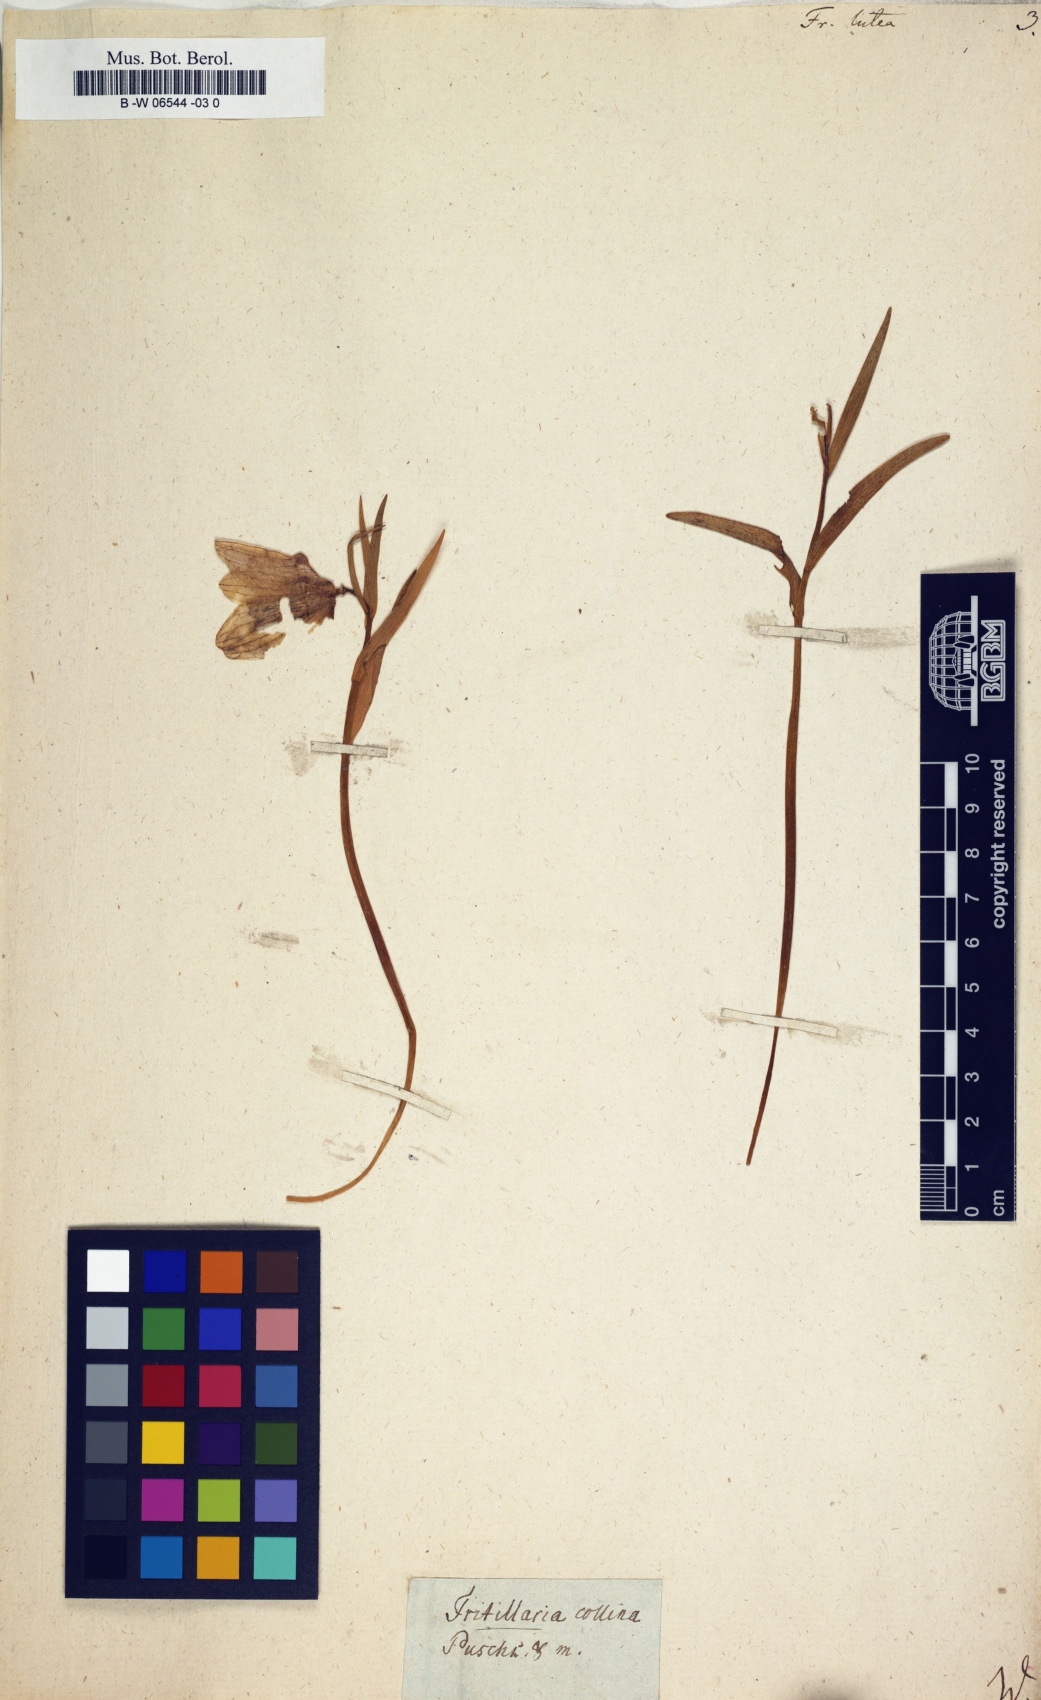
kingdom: Plantae
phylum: Tracheophyta
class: Liliopsida
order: Liliales
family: Liliaceae
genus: Fritillaria
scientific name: Fritillaria
